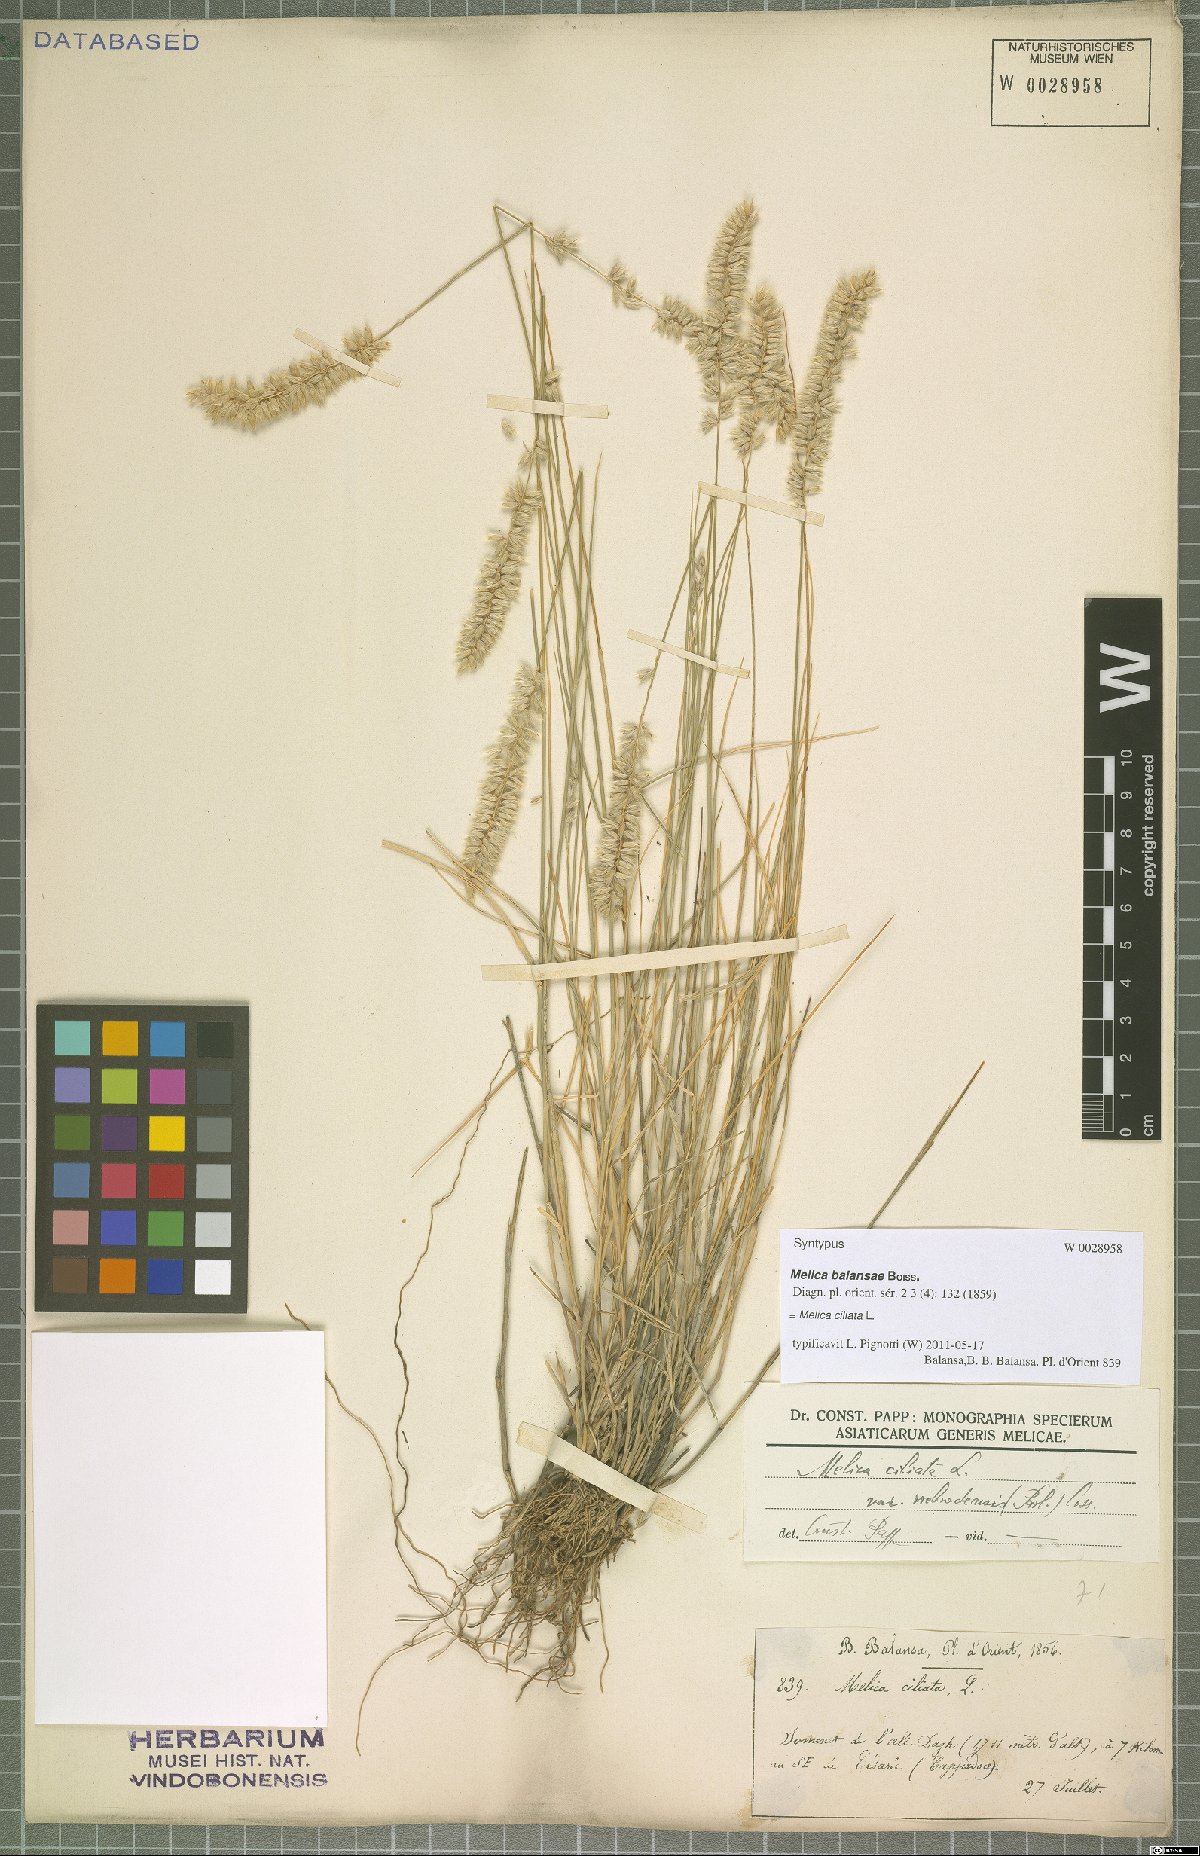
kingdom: Plantae
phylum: Tracheophyta
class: Liliopsida
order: Poales
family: Poaceae
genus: Melica
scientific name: Melica ciliata
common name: Hairy melicgrass
